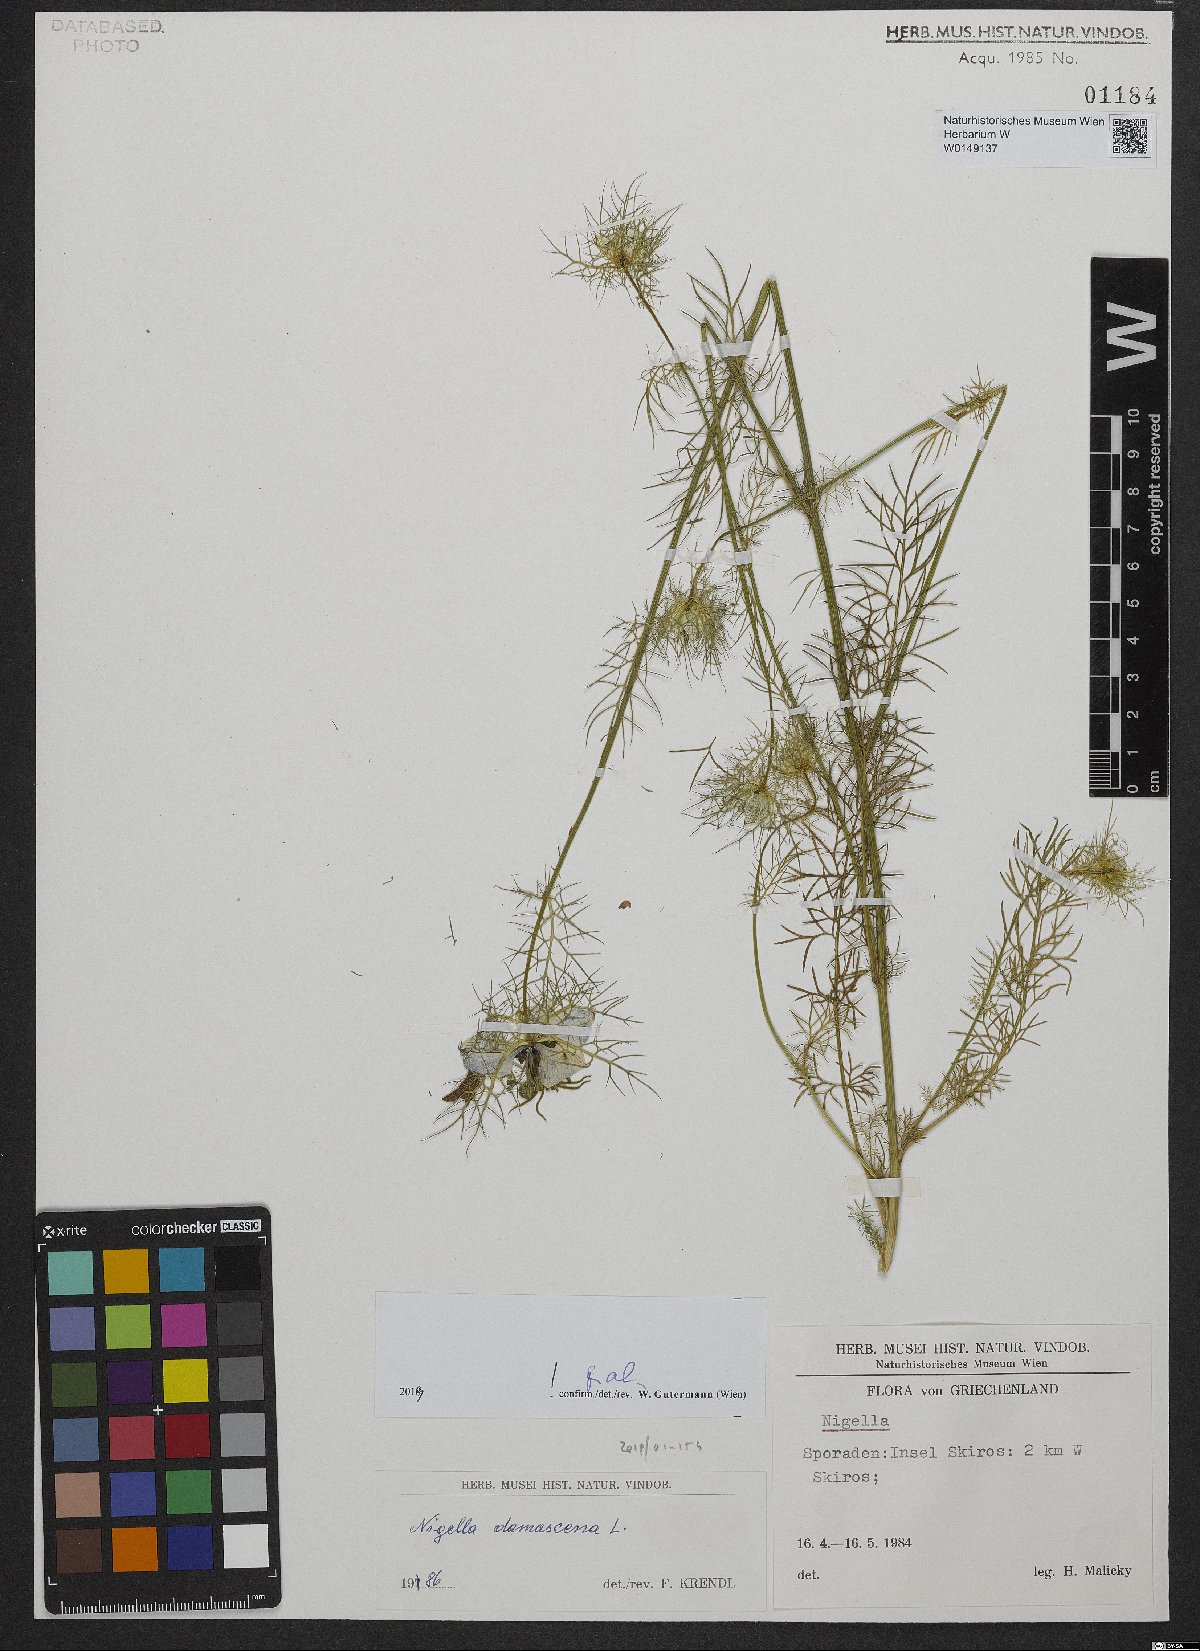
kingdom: Plantae
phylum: Tracheophyta
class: Magnoliopsida
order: Ranunculales
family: Ranunculaceae
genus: Nigella
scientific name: Nigella damascena
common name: Love-in-a-mist
